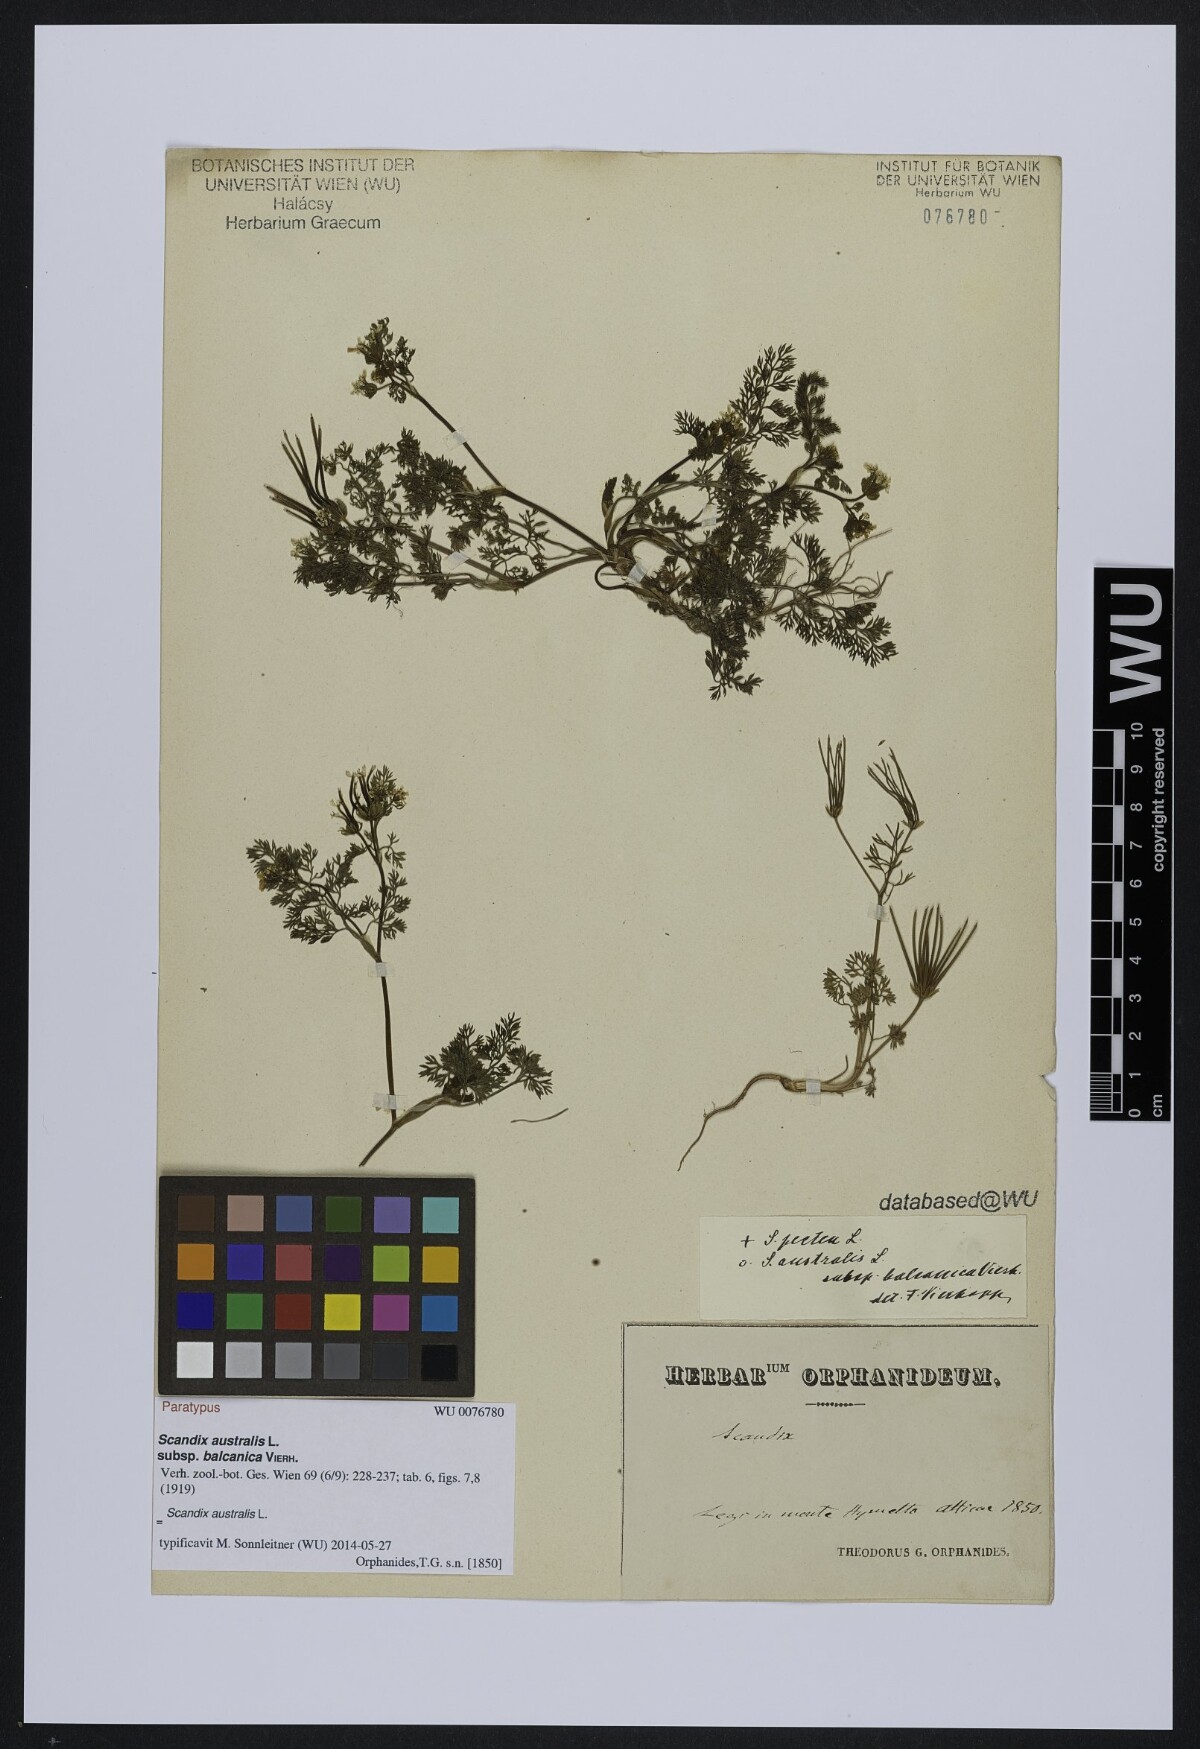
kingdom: Plantae
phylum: Tracheophyta
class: Magnoliopsida
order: Apiales
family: Apiaceae
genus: Scandix
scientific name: Scandix australis
